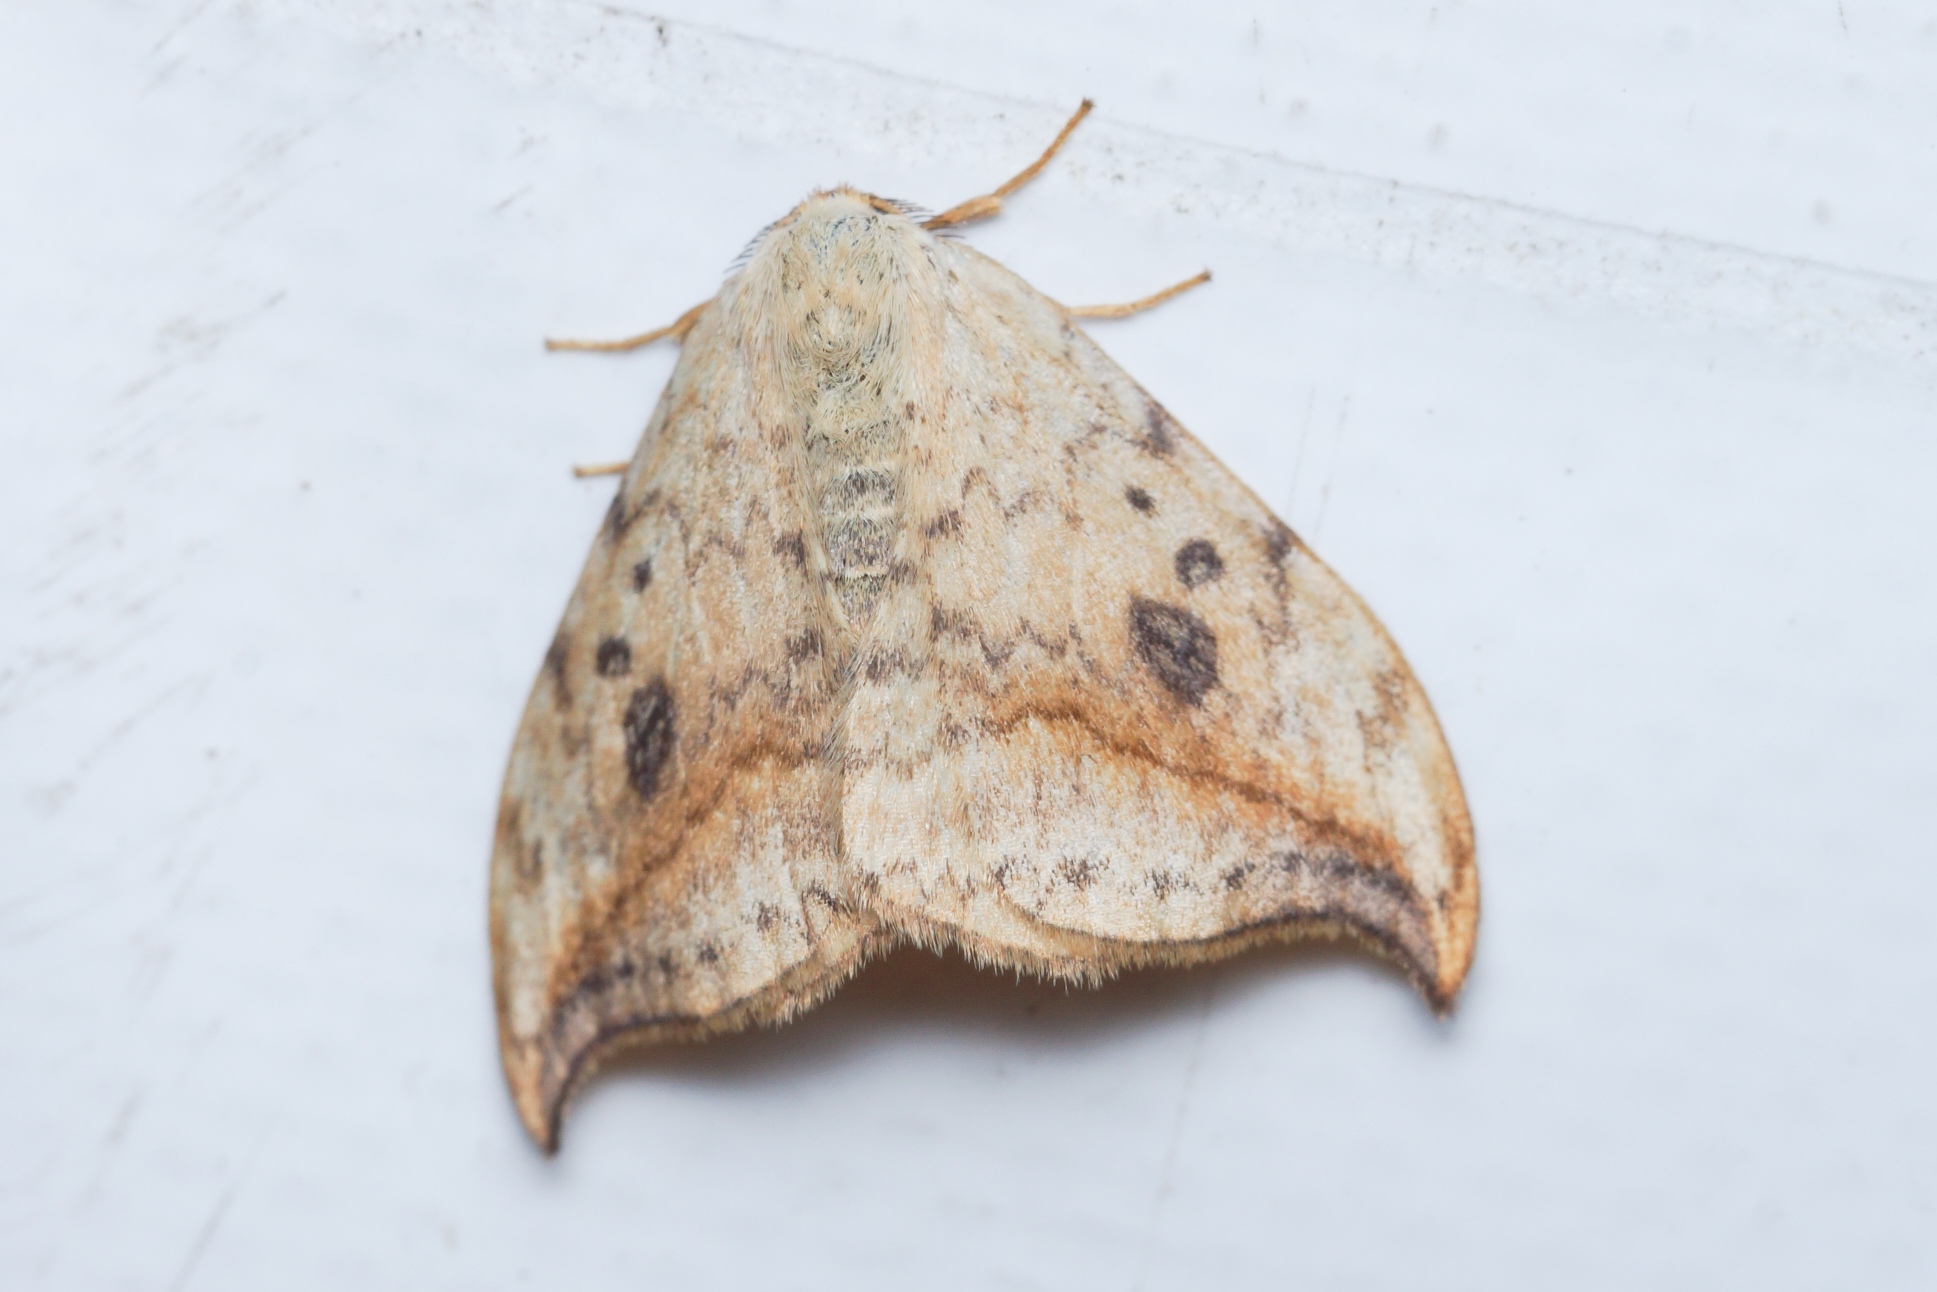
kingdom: Animalia
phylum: Arthropoda
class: Insecta
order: Lepidoptera
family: Drepanidae
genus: Drepana
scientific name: Drepana falcataria
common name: Birkeseglvinge
